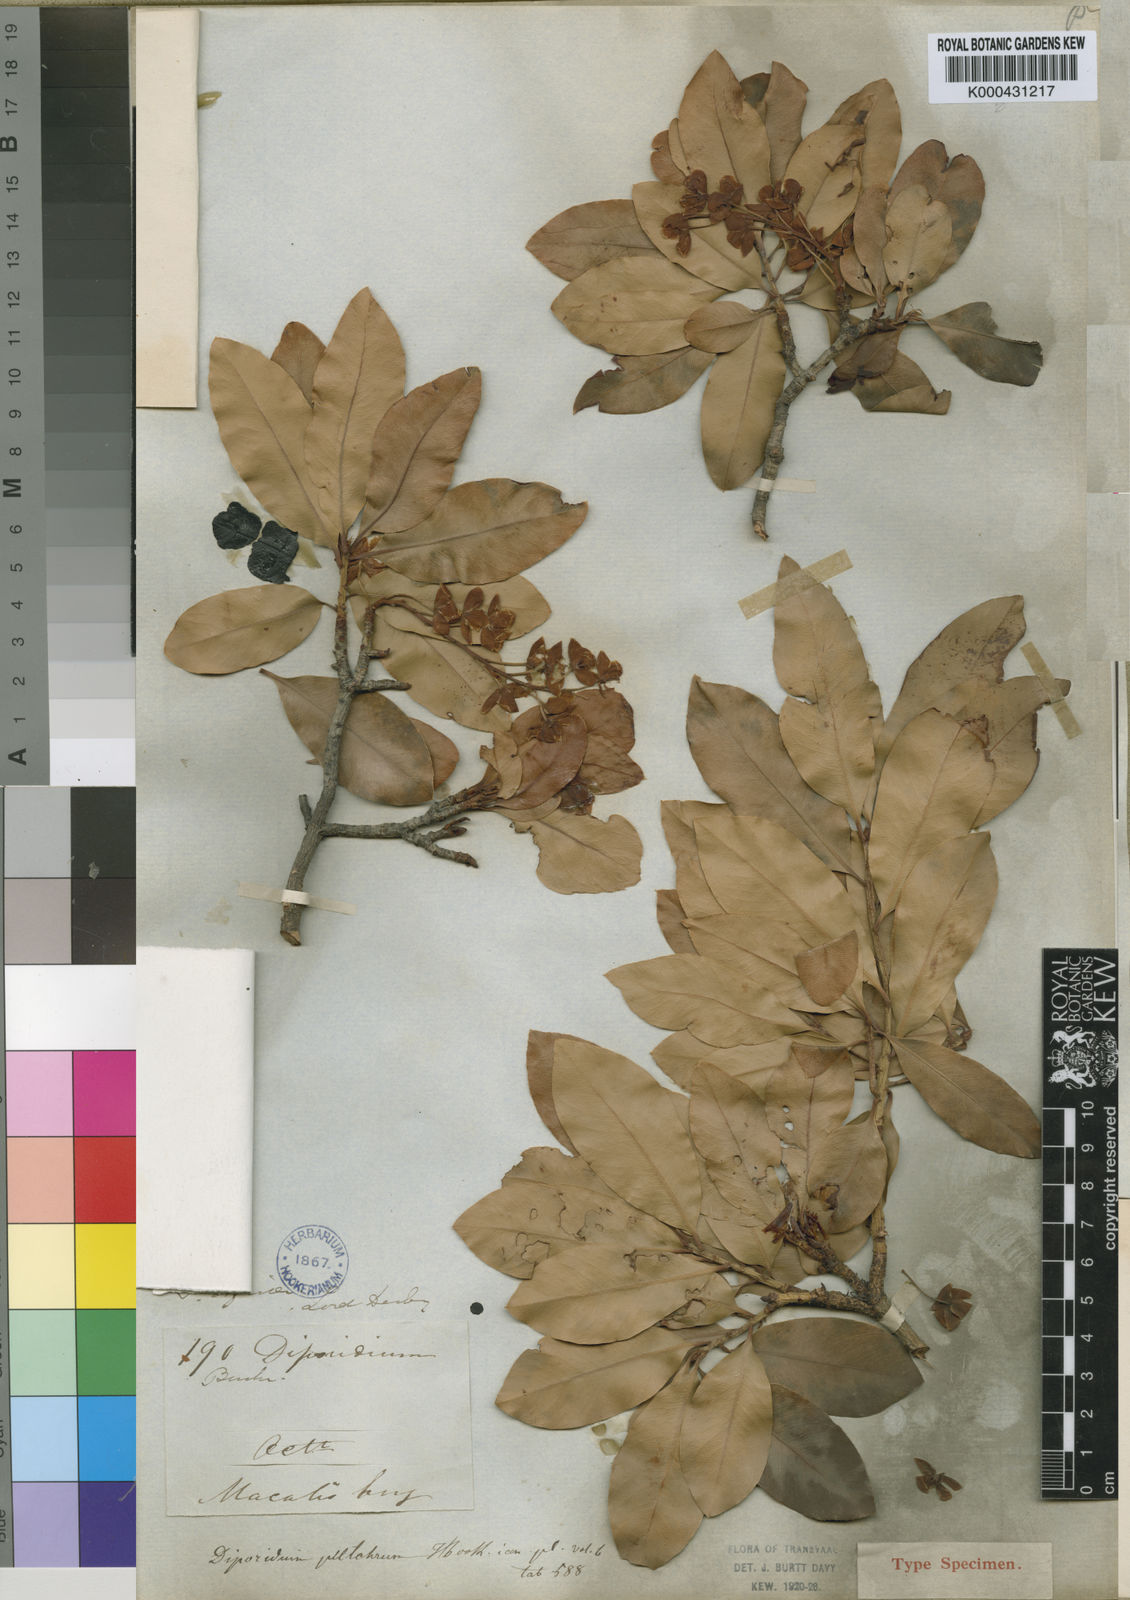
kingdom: Plantae
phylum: Tracheophyta
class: Magnoliopsida
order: Malpighiales
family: Ochnaceae
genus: Ochna
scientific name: Ochna pulchra
